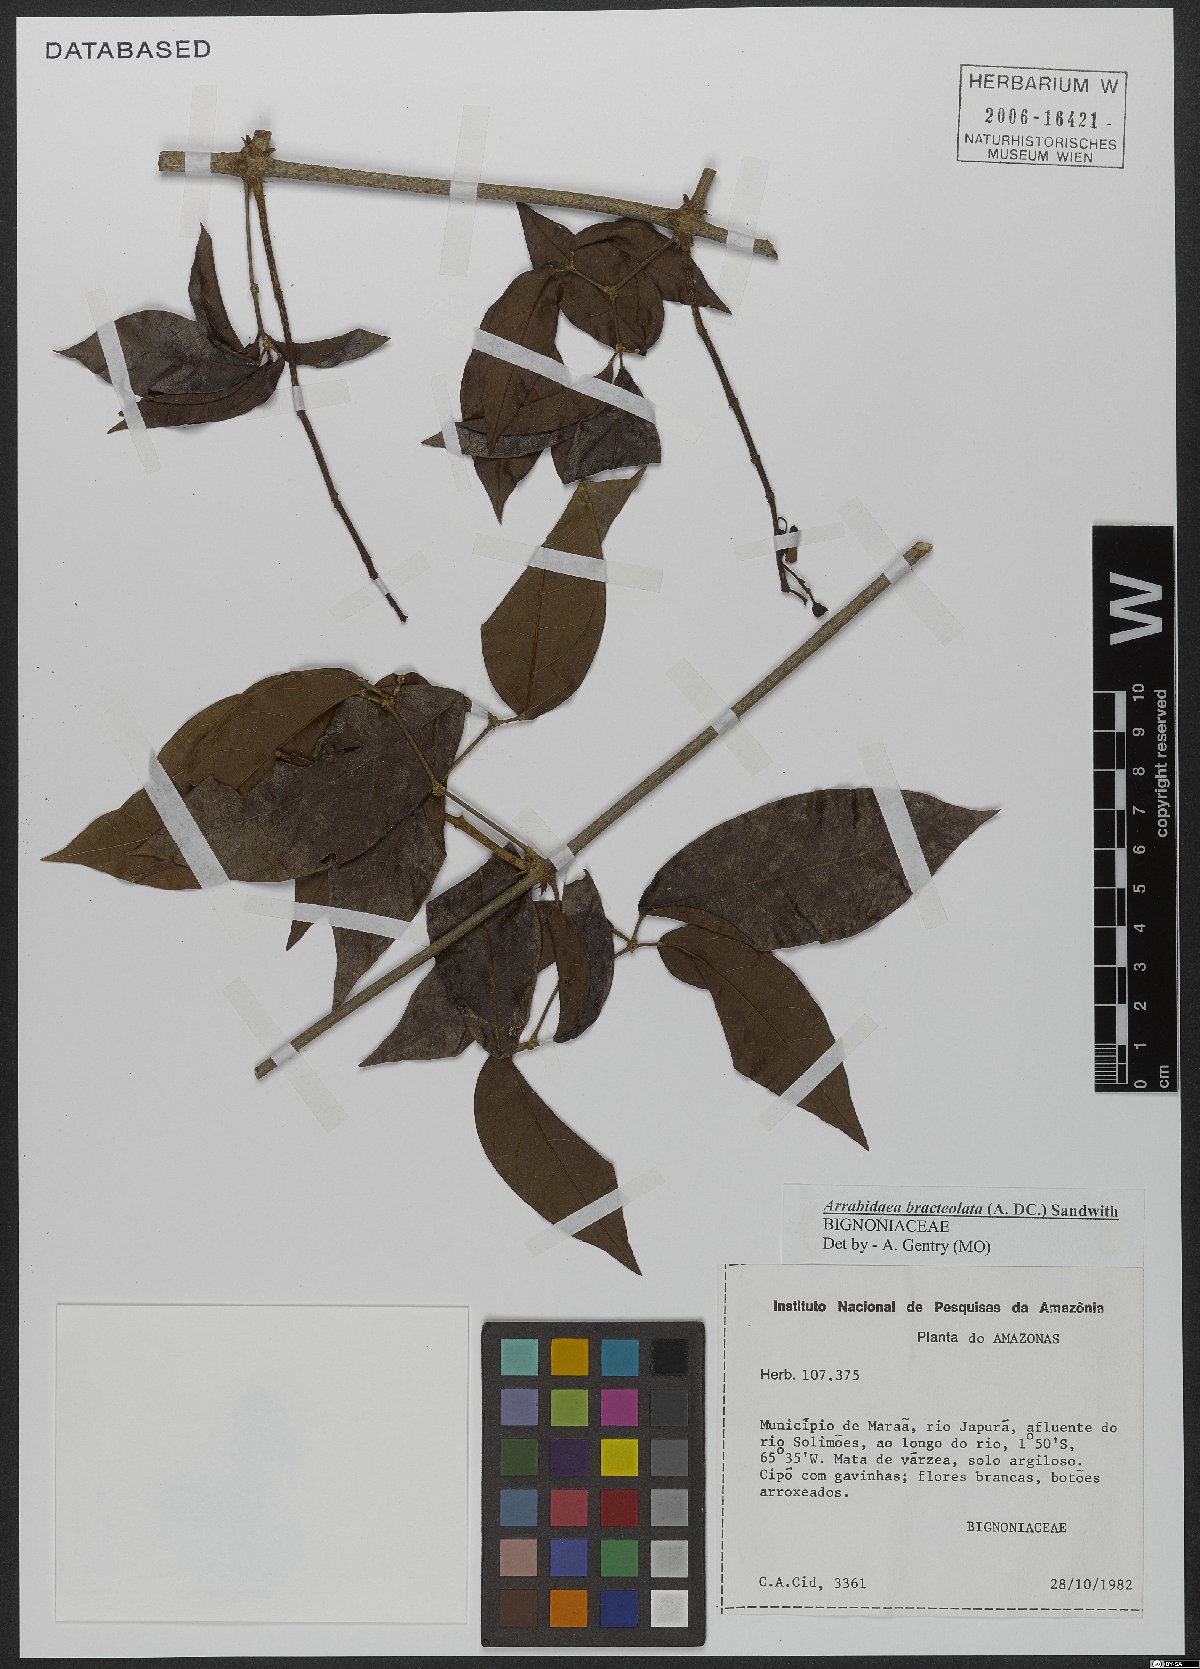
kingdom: Plantae
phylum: Tracheophyta
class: Magnoliopsida
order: Lamiales
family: Bignoniaceae
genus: Cuspidaria
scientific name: Cuspidaria bracteolata
